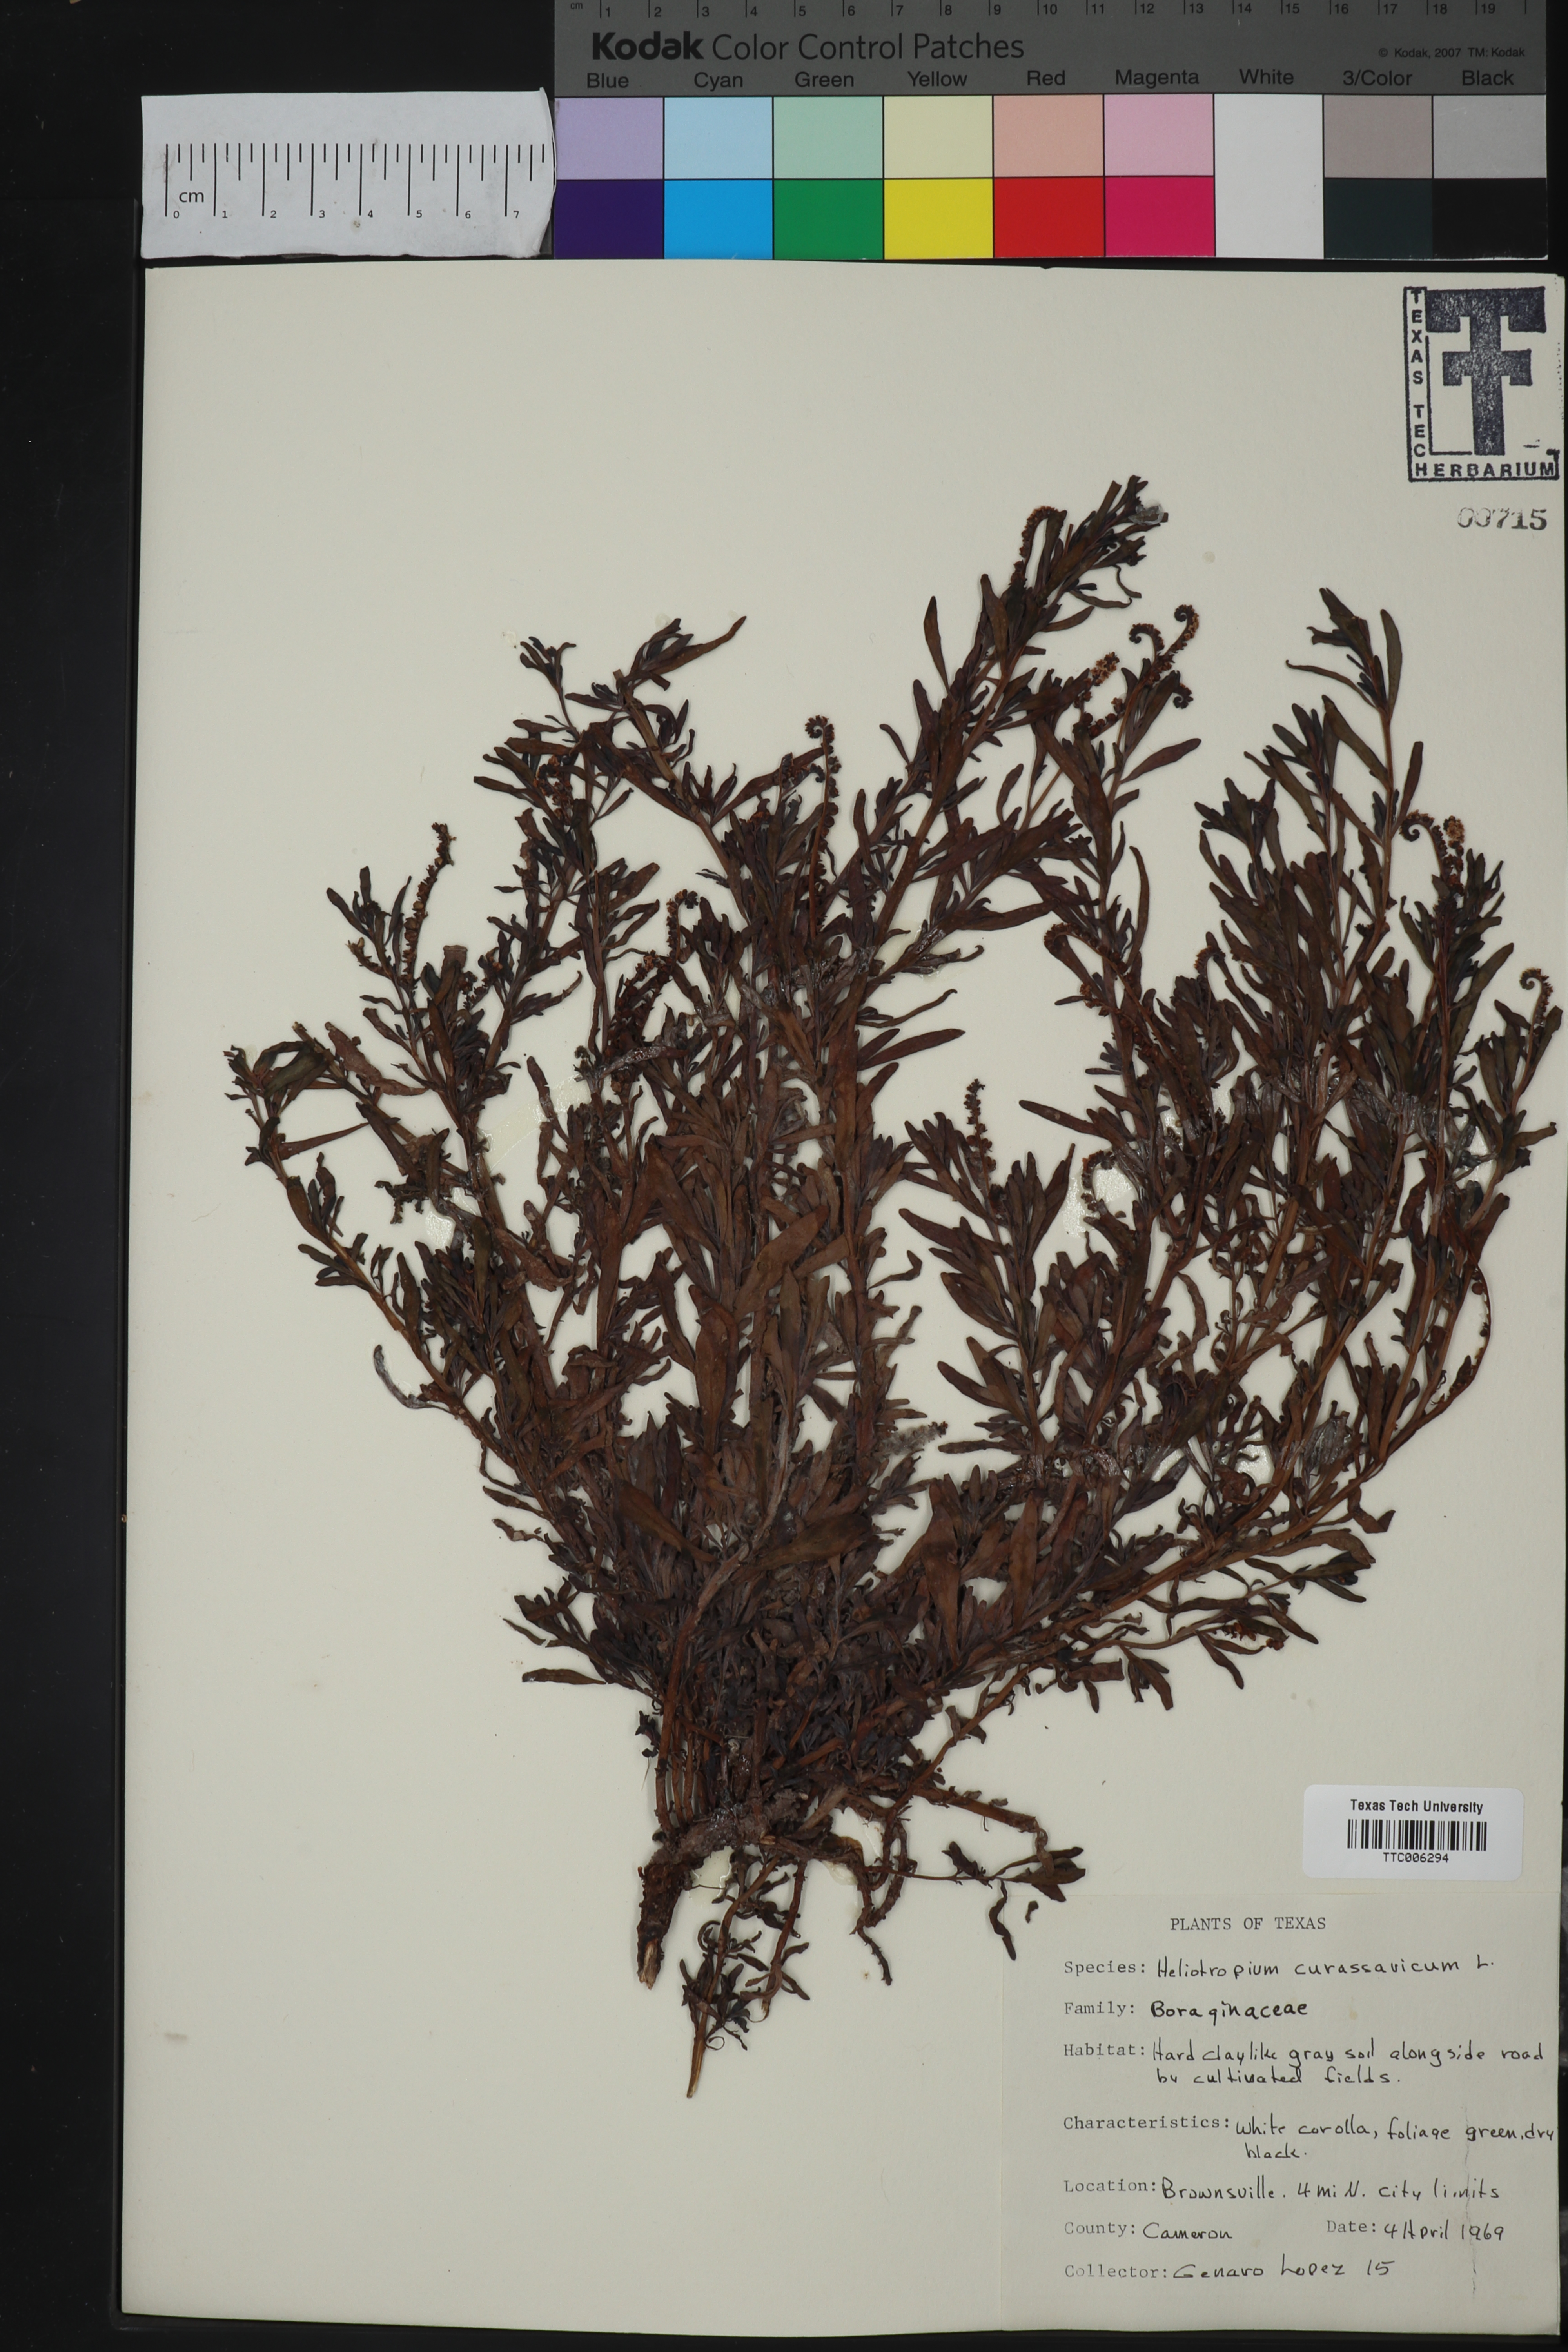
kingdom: Plantae
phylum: Tracheophyta
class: Magnoliopsida
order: Boraginales
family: Heliotropiaceae
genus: Heliotropium
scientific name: Heliotropium curassavicum
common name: Seaside heliotrope
